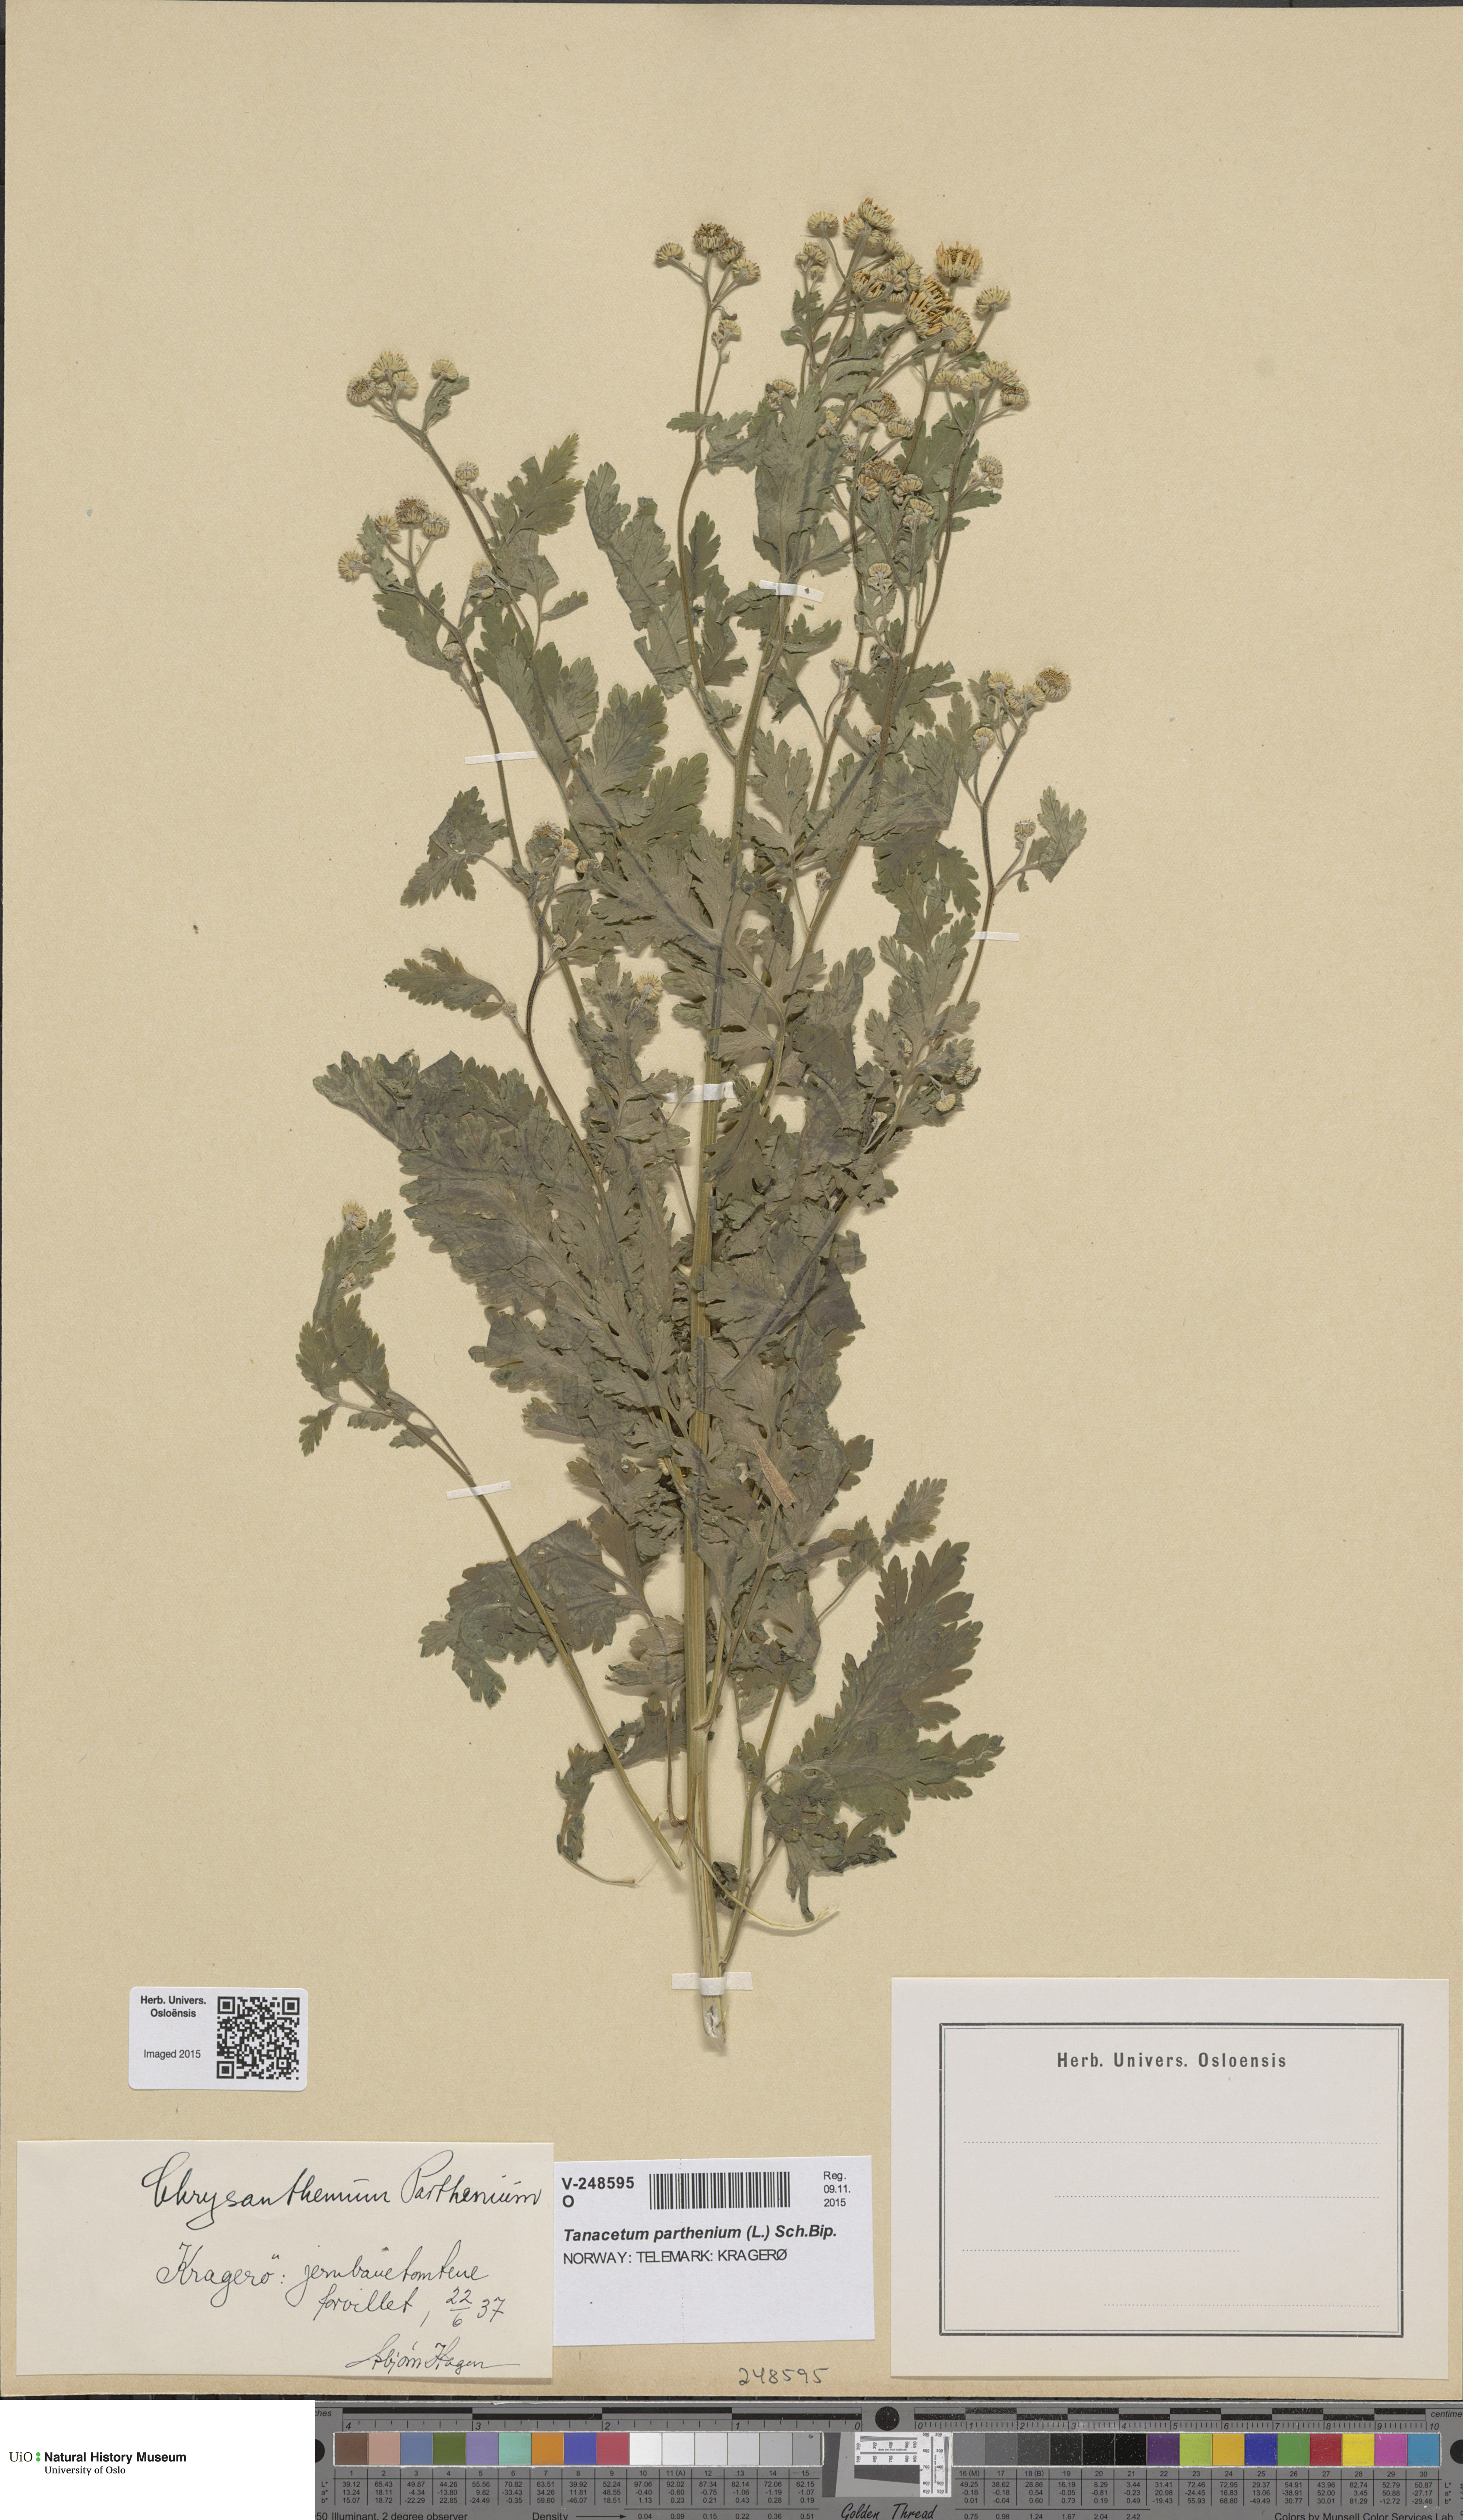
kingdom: Plantae
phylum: Tracheophyta
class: Magnoliopsida
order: Asterales
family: Asteraceae
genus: Tanacetum
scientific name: Tanacetum parthenium
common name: Feverfew
